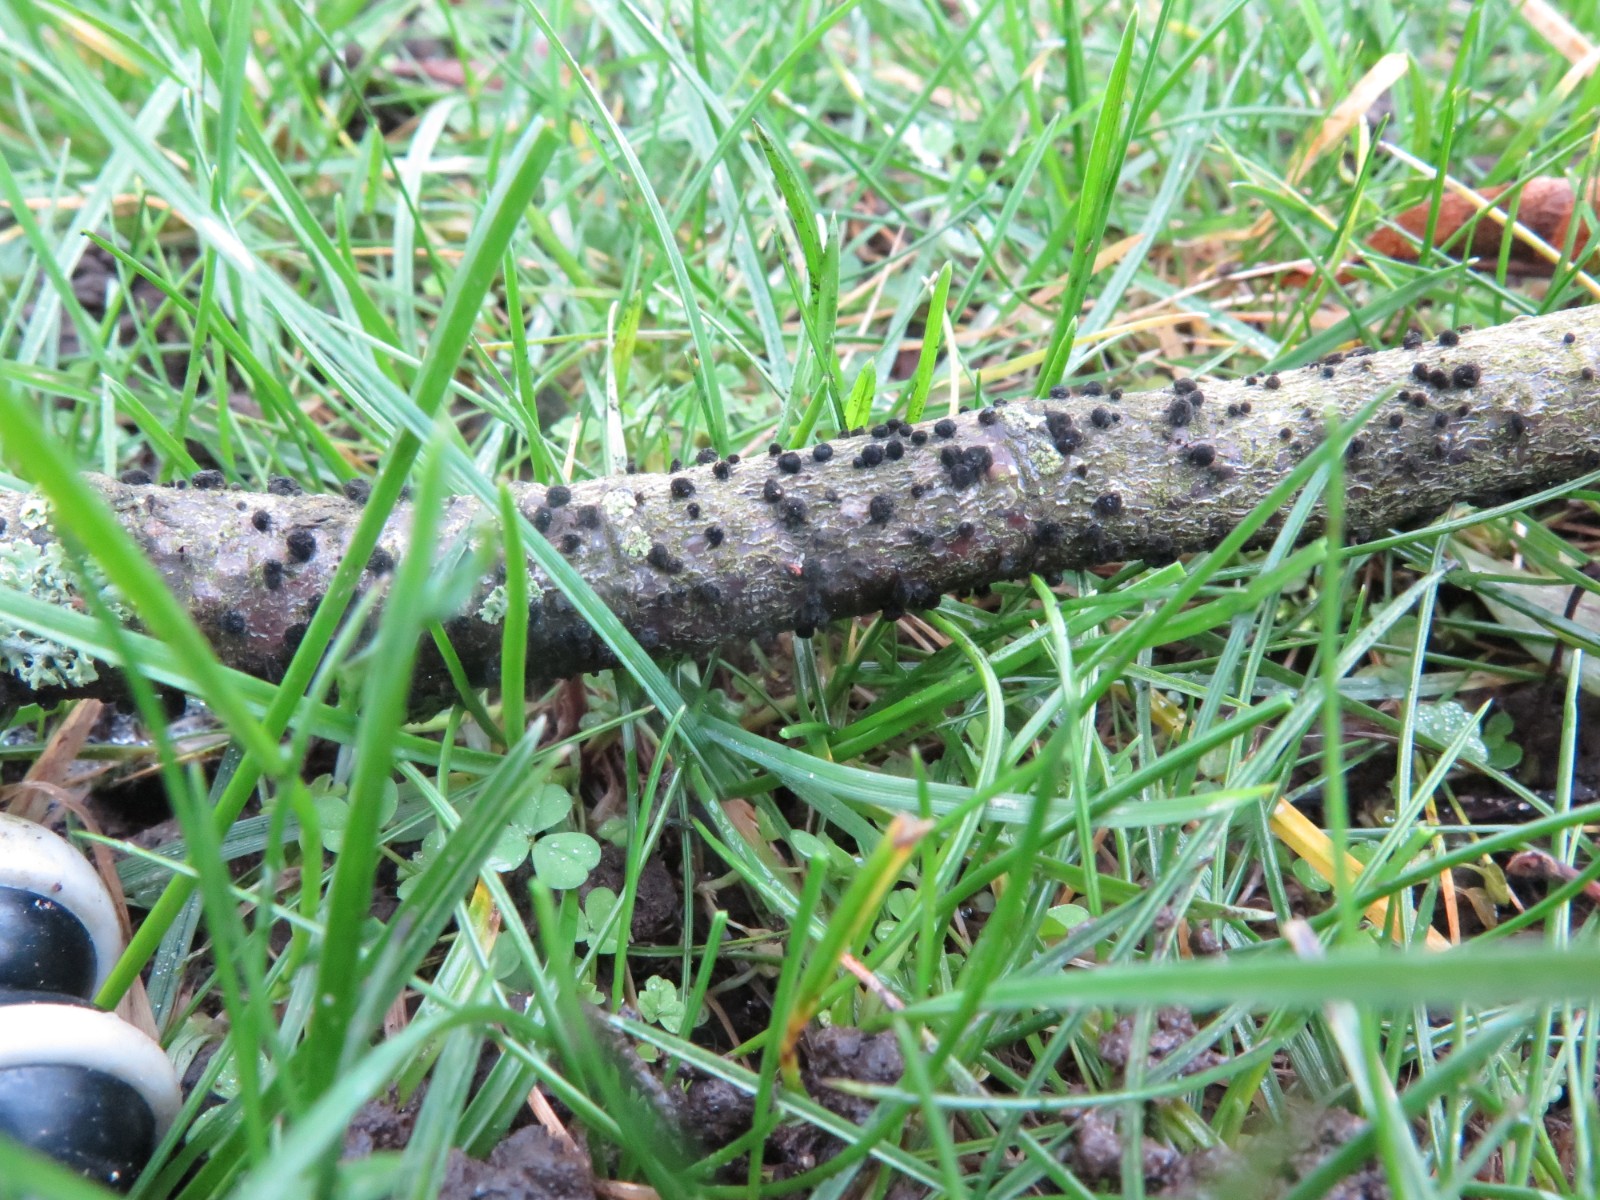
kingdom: Fungi
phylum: Ascomycota
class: Dothideomycetes
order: Pleosporales
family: Massarinaceae
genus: Helminthosporium
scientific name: Helminthosporium oligosporum
